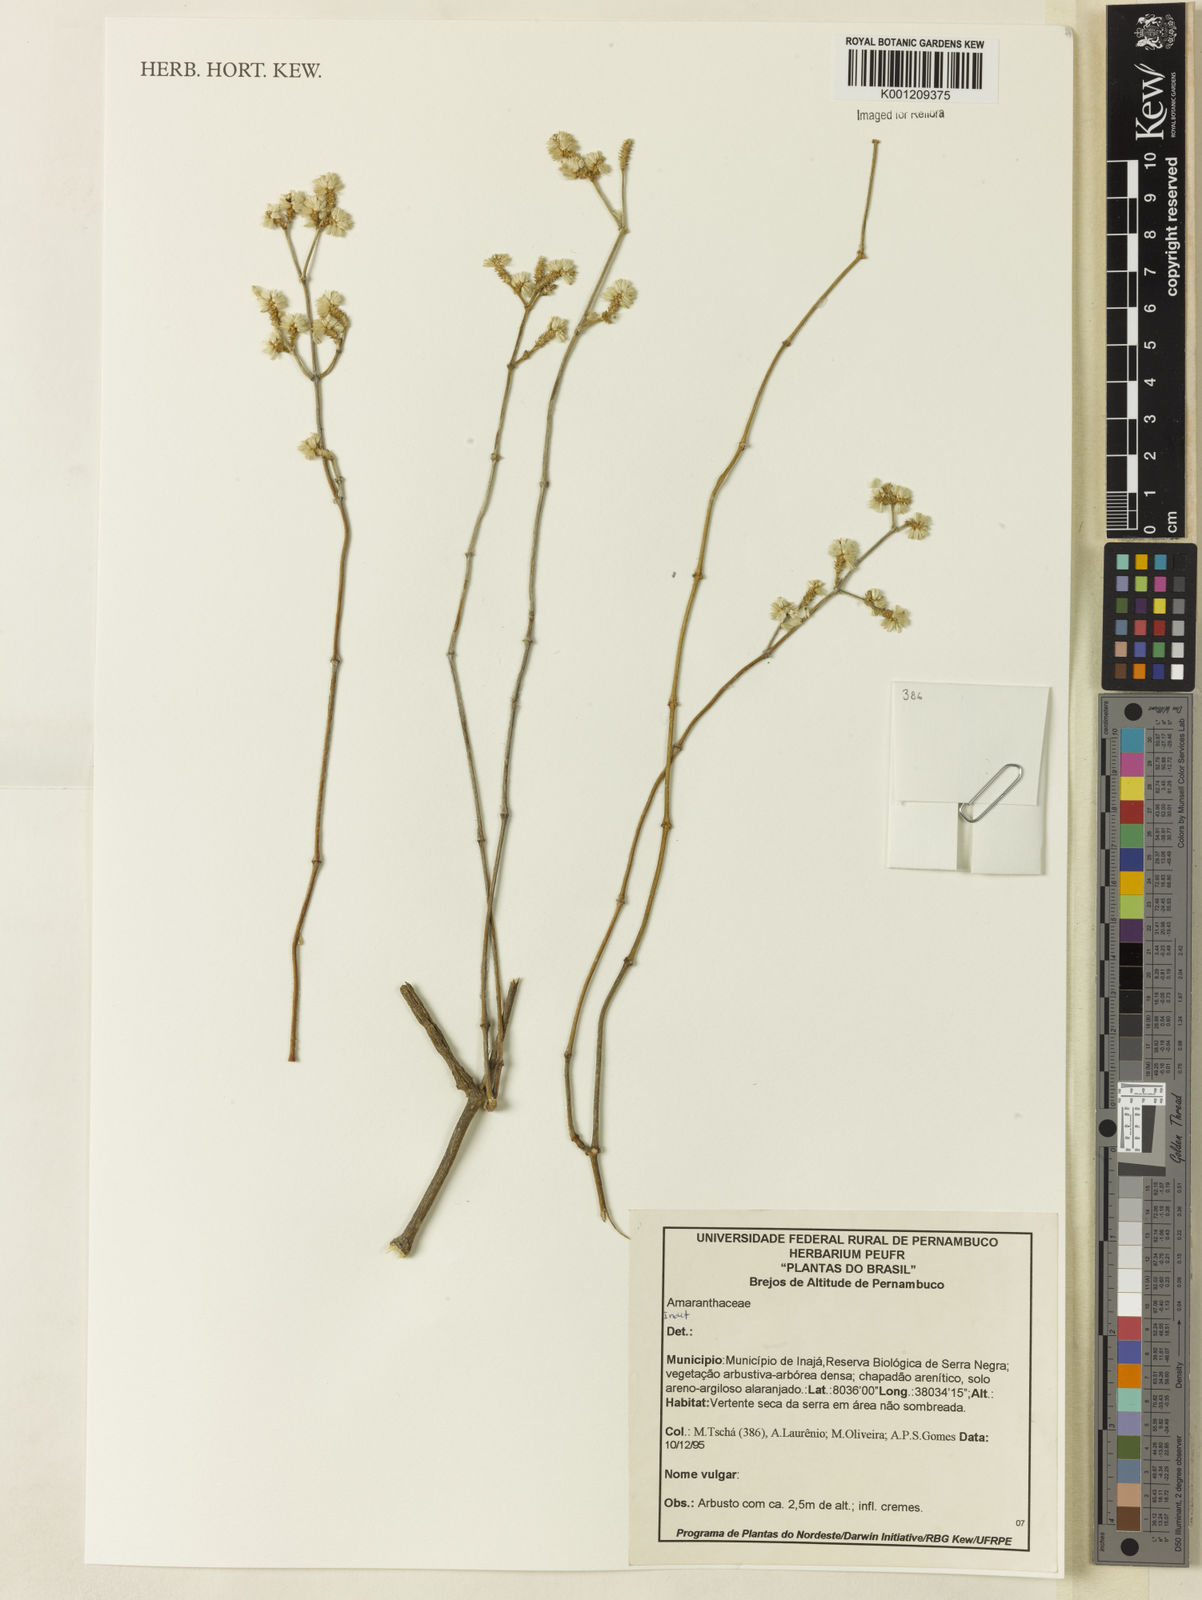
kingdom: Plantae
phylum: Tracheophyta
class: Magnoliopsida
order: Caryophyllales
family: Amaranthaceae
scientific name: Amaranthaceae
